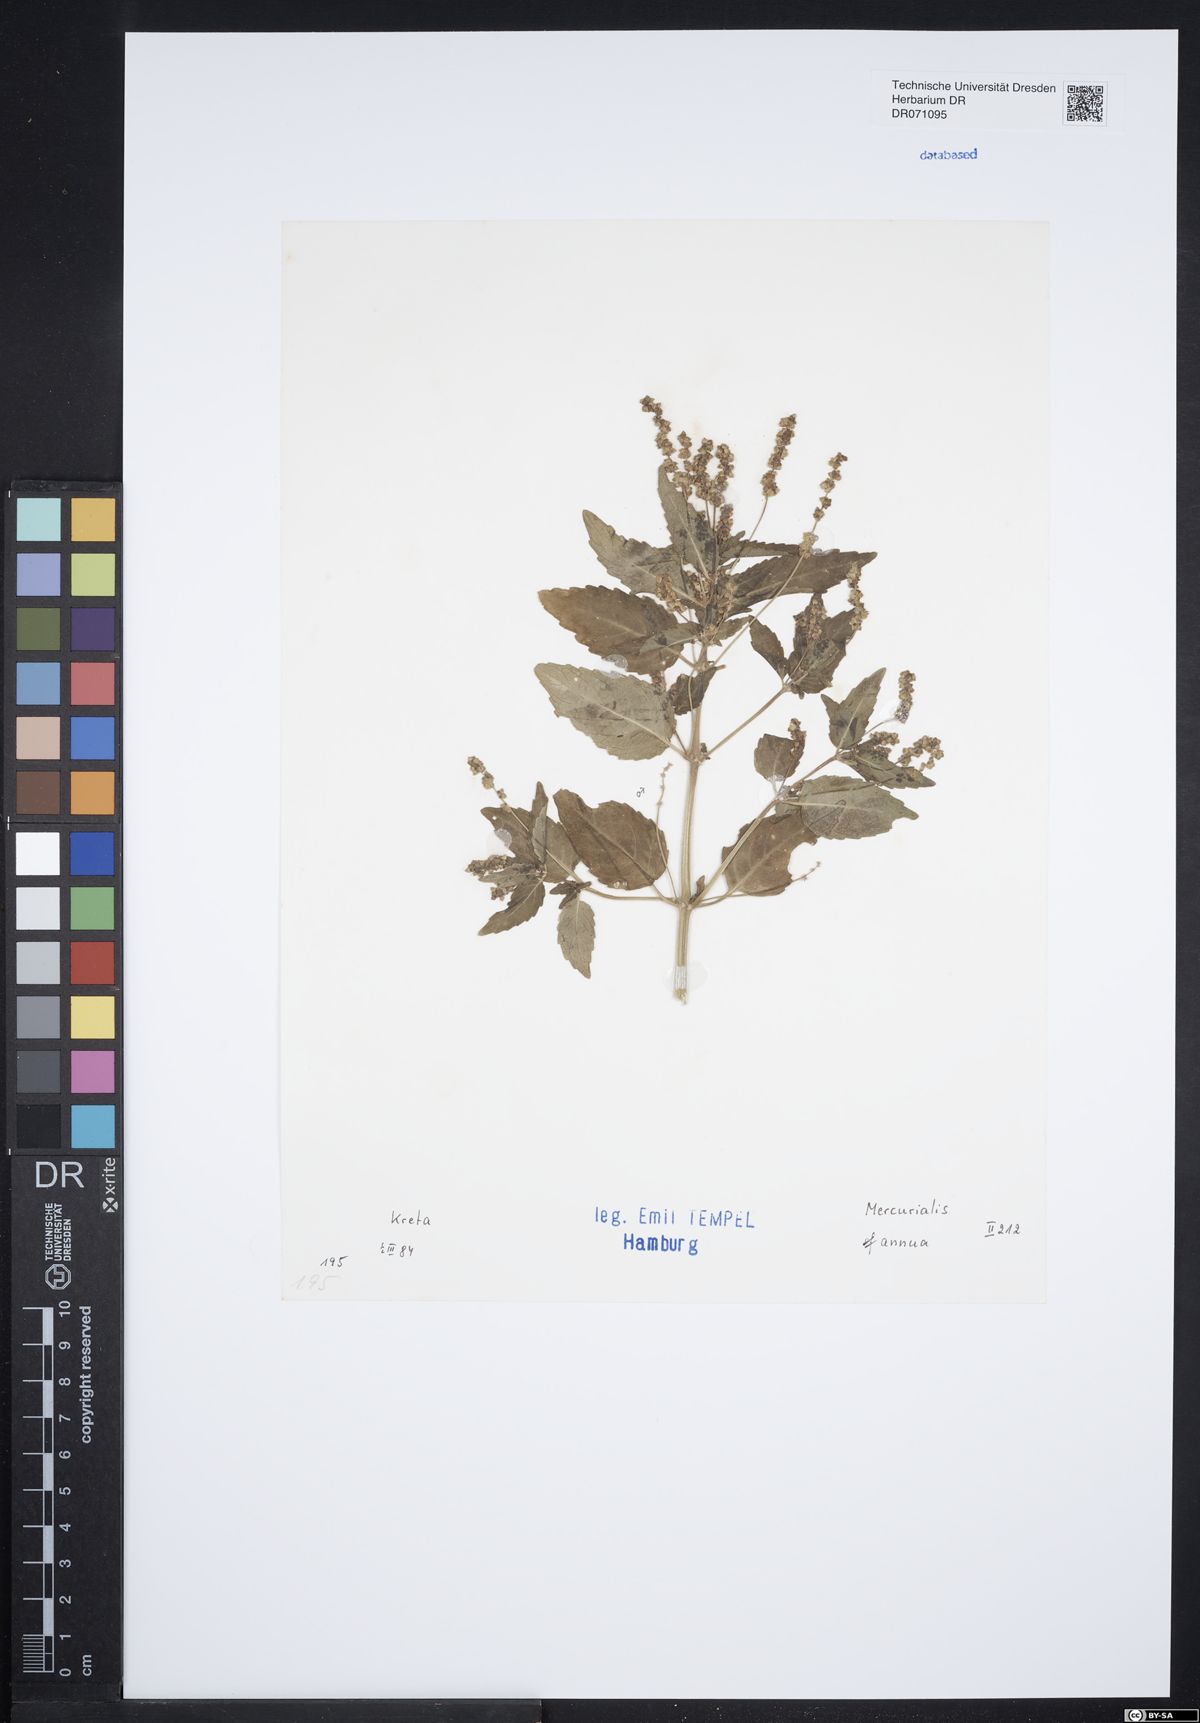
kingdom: Plantae
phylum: Tracheophyta
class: Magnoliopsida
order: Malpighiales
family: Euphorbiaceae
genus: Mercurialis
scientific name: Mercurialis annua
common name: Annual mercury
